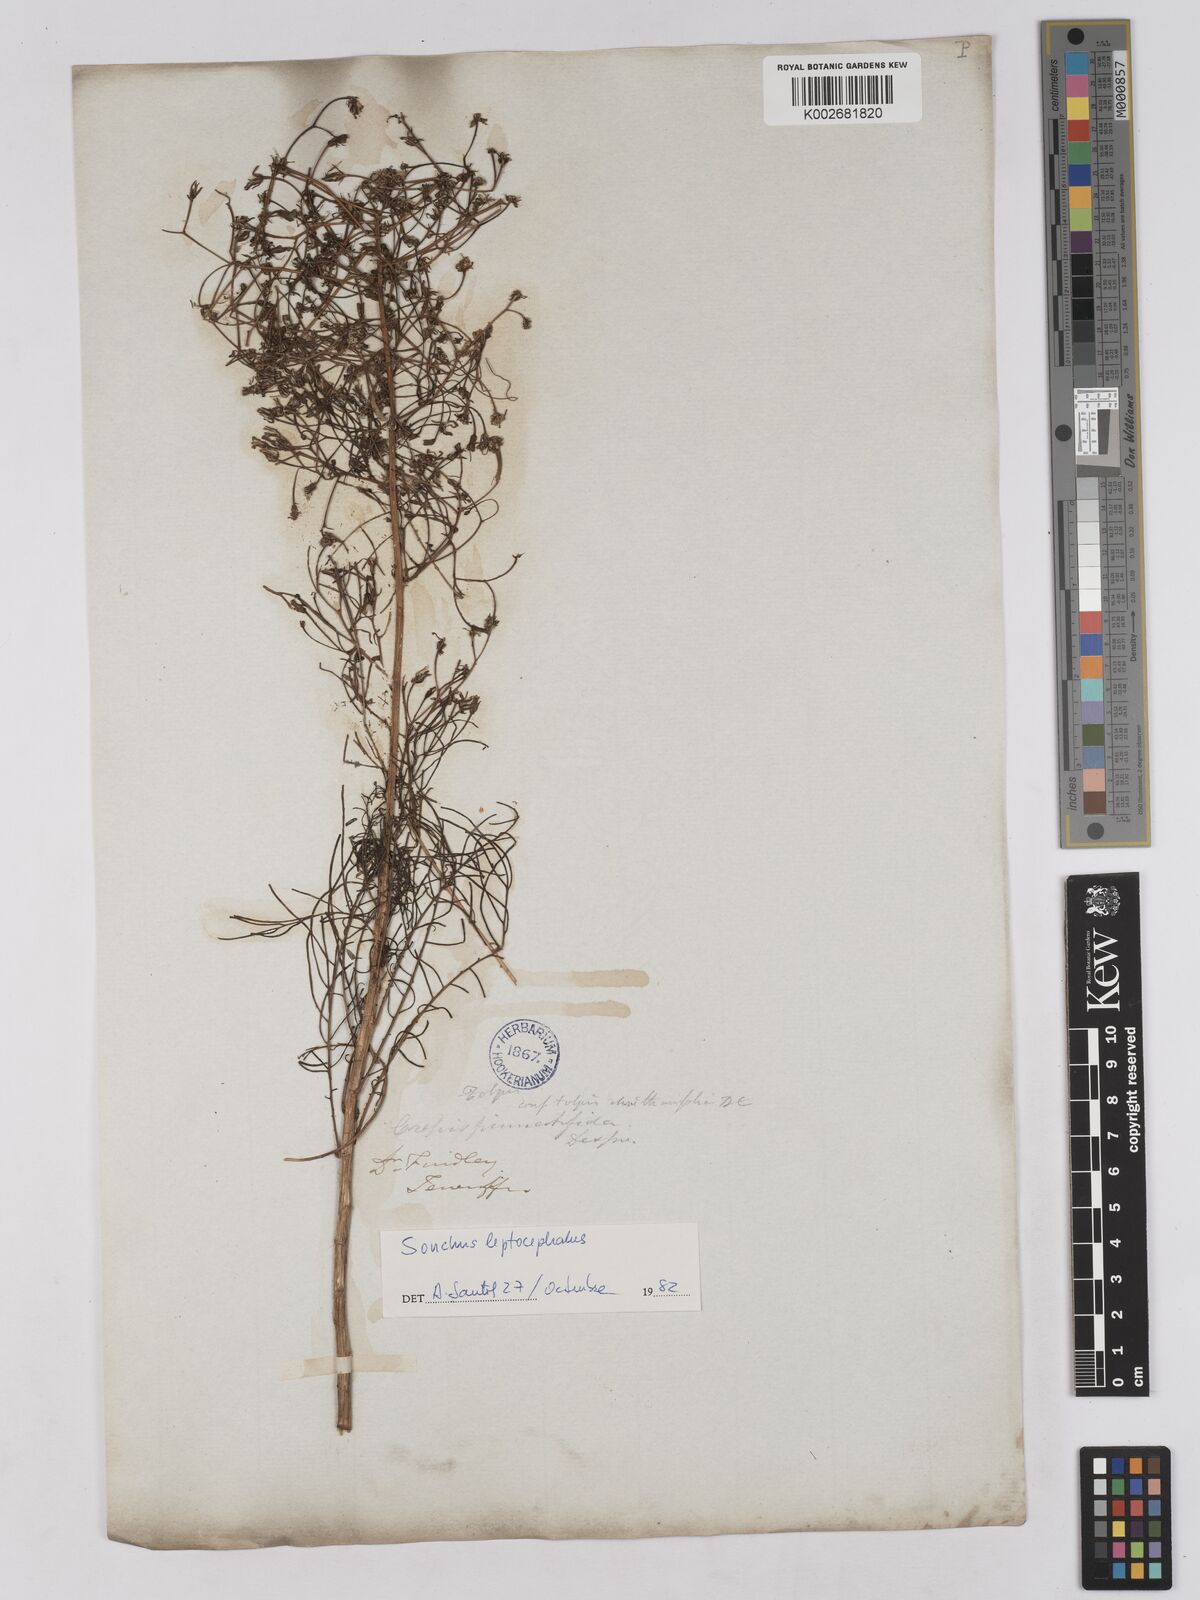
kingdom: Plantae
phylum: Tracheophyta
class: Magnoliopsida
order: Asterales
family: Asteraceae
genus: Tolpis
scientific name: Tolpis coronopifolia
